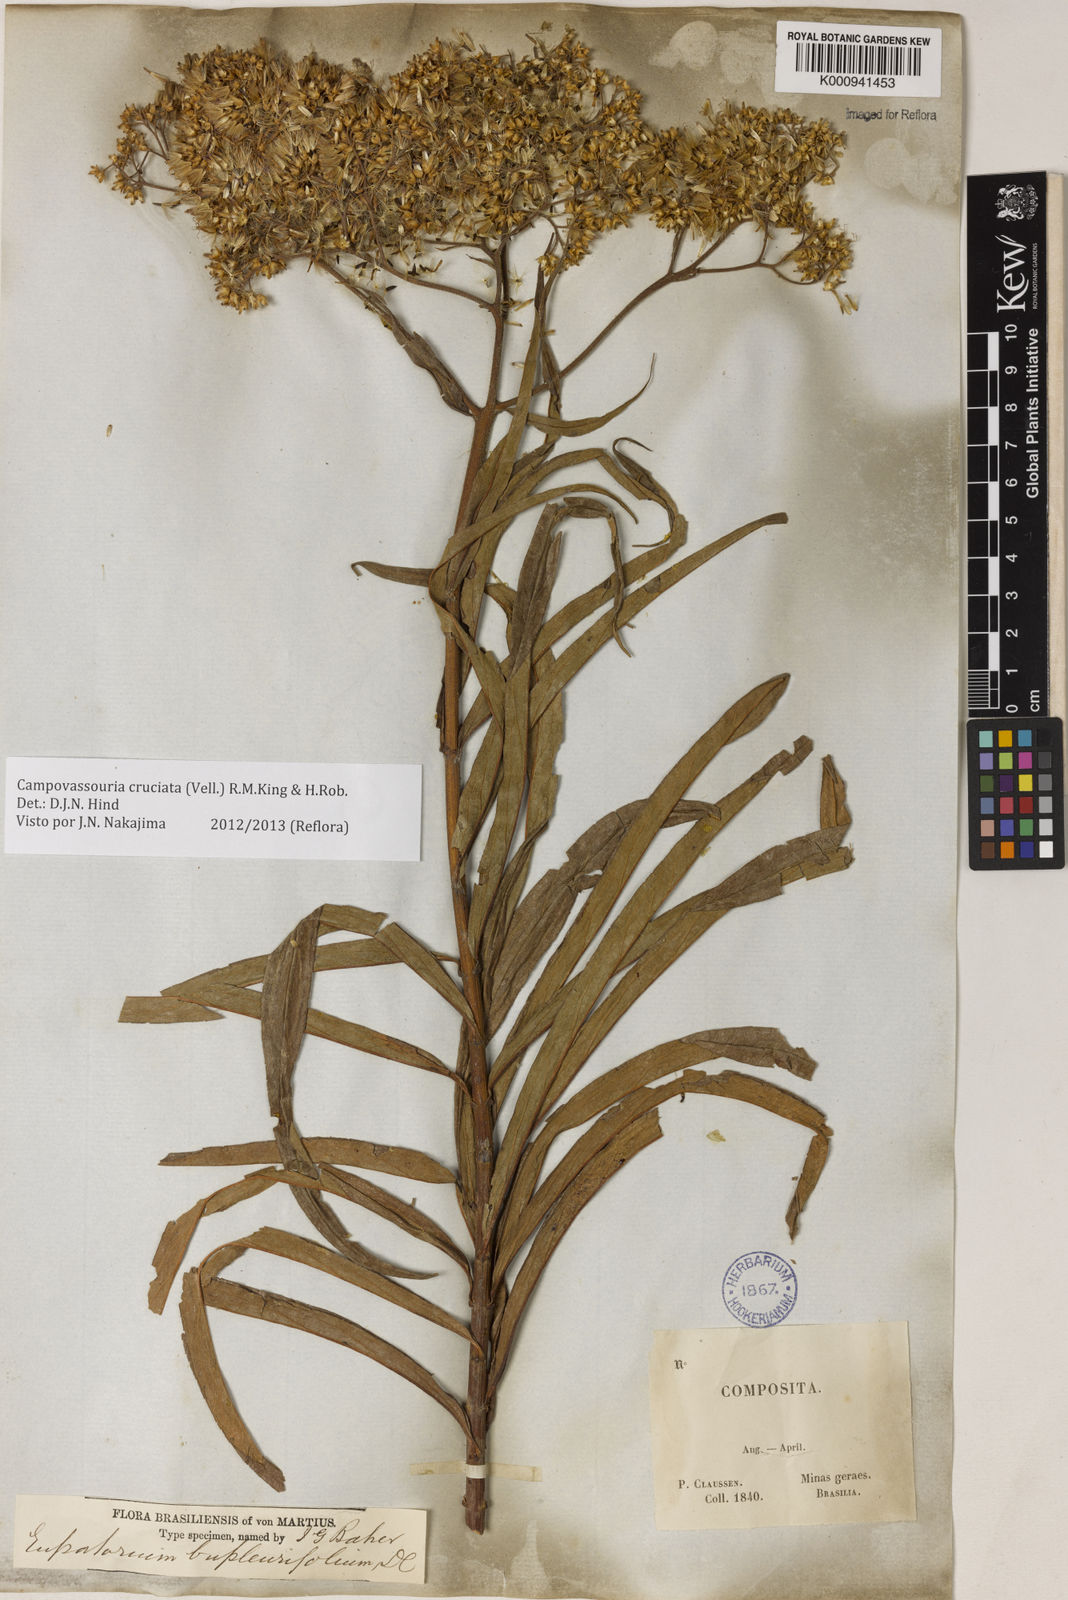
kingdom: Plantae
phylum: Tracheophyta
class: Magnoliopsida
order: Asterales
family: Asteraceae
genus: Campovassouria
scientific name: Campovassouria cruciata
